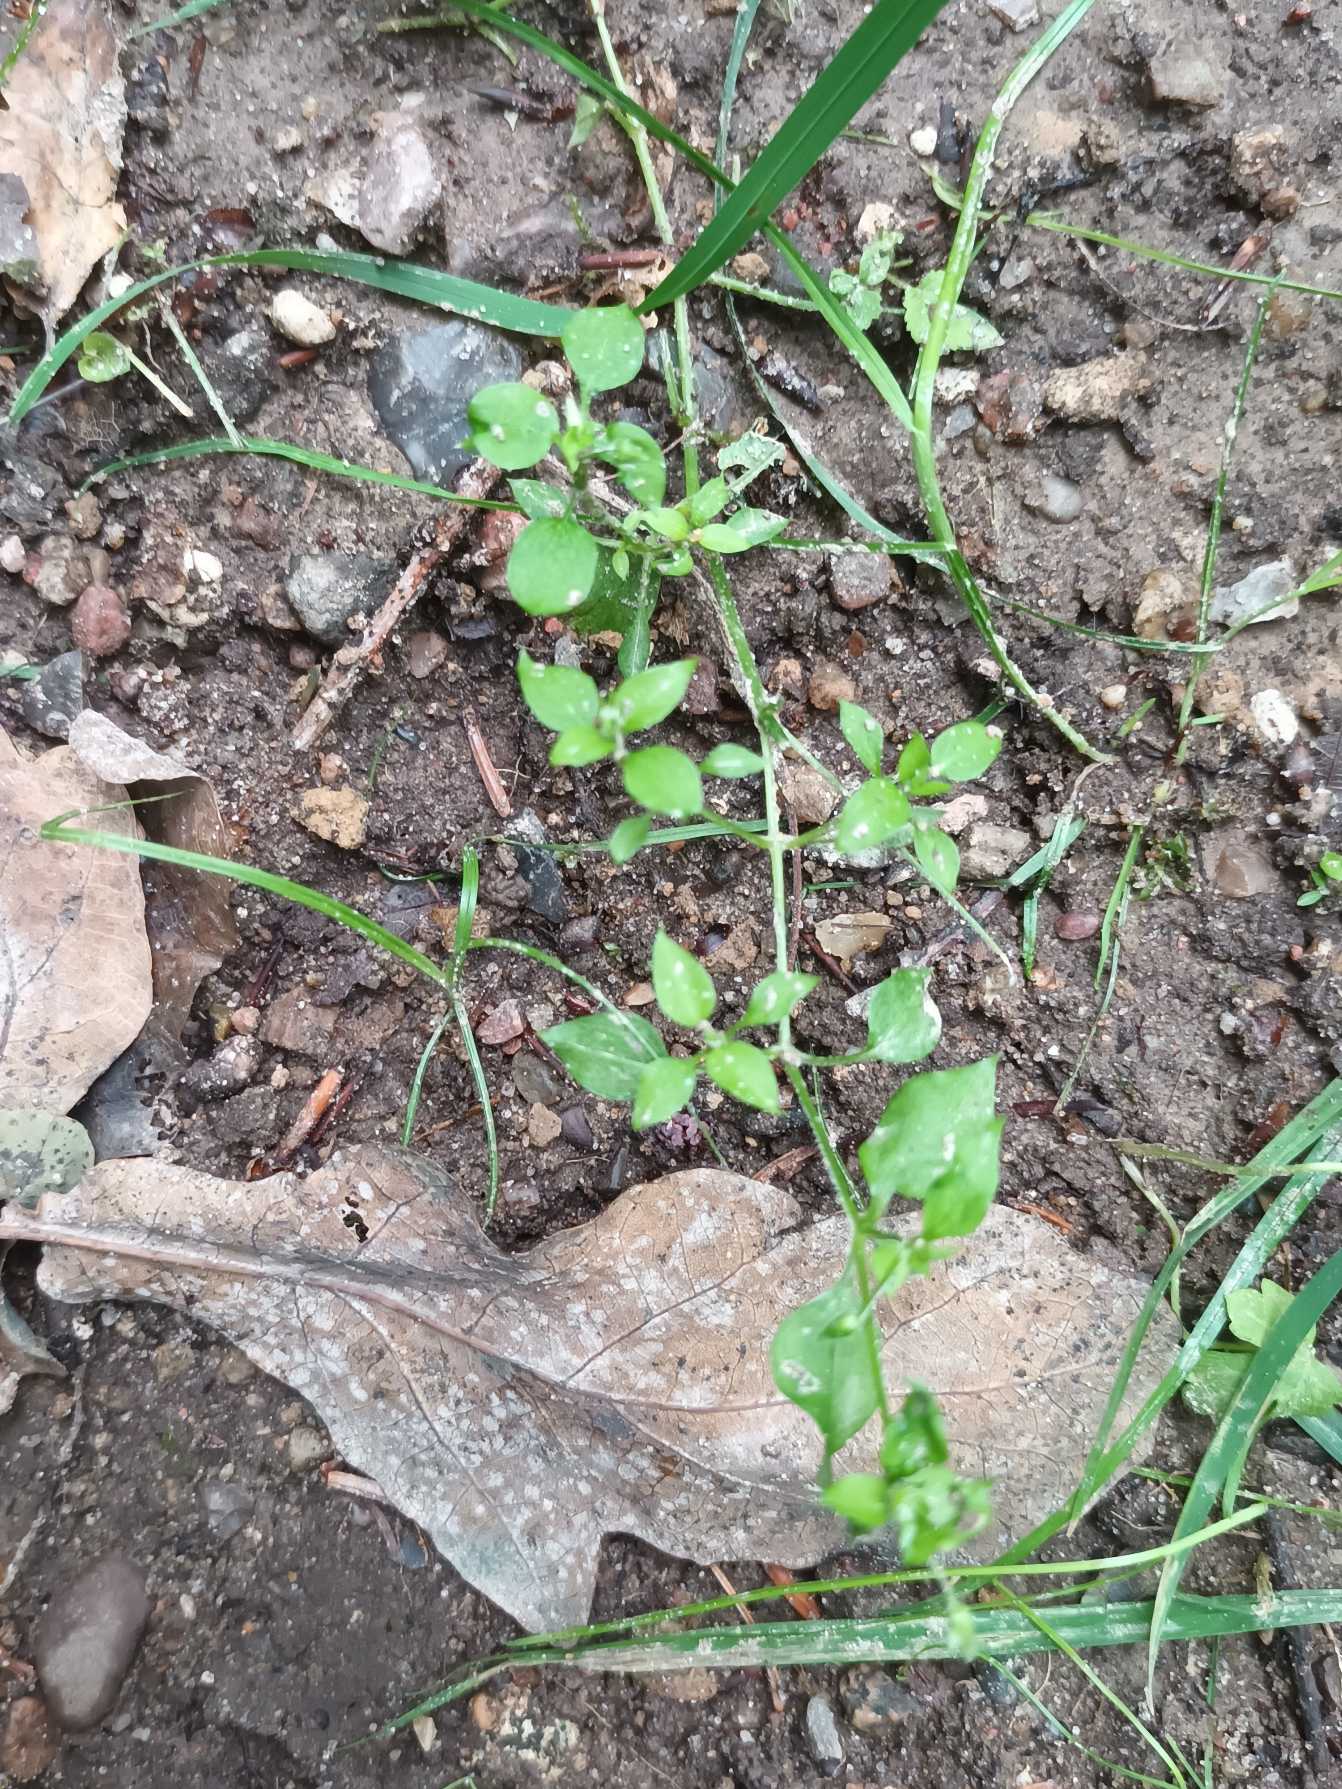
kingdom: Plantae
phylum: Tracheophyta
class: Magnoliopsida
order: Caryophyllales
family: Caryophyllaceae
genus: Stellaria
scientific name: Stellaria media
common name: Almindelig fuglegræs
